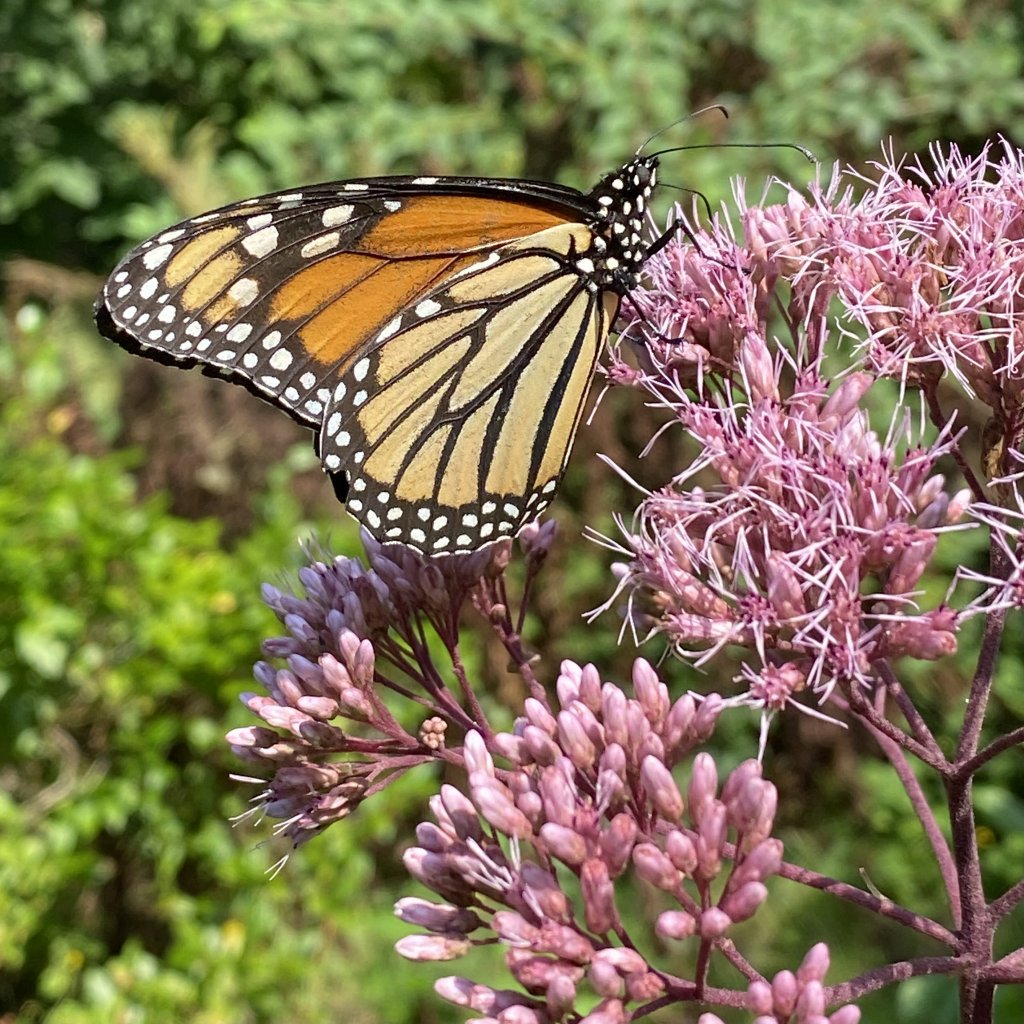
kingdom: Animalia
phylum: Arthropoda
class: Insecta
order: Lepidoptera
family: Nymphalidae
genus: Danaus
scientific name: Danaus plexippus
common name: Monarch
